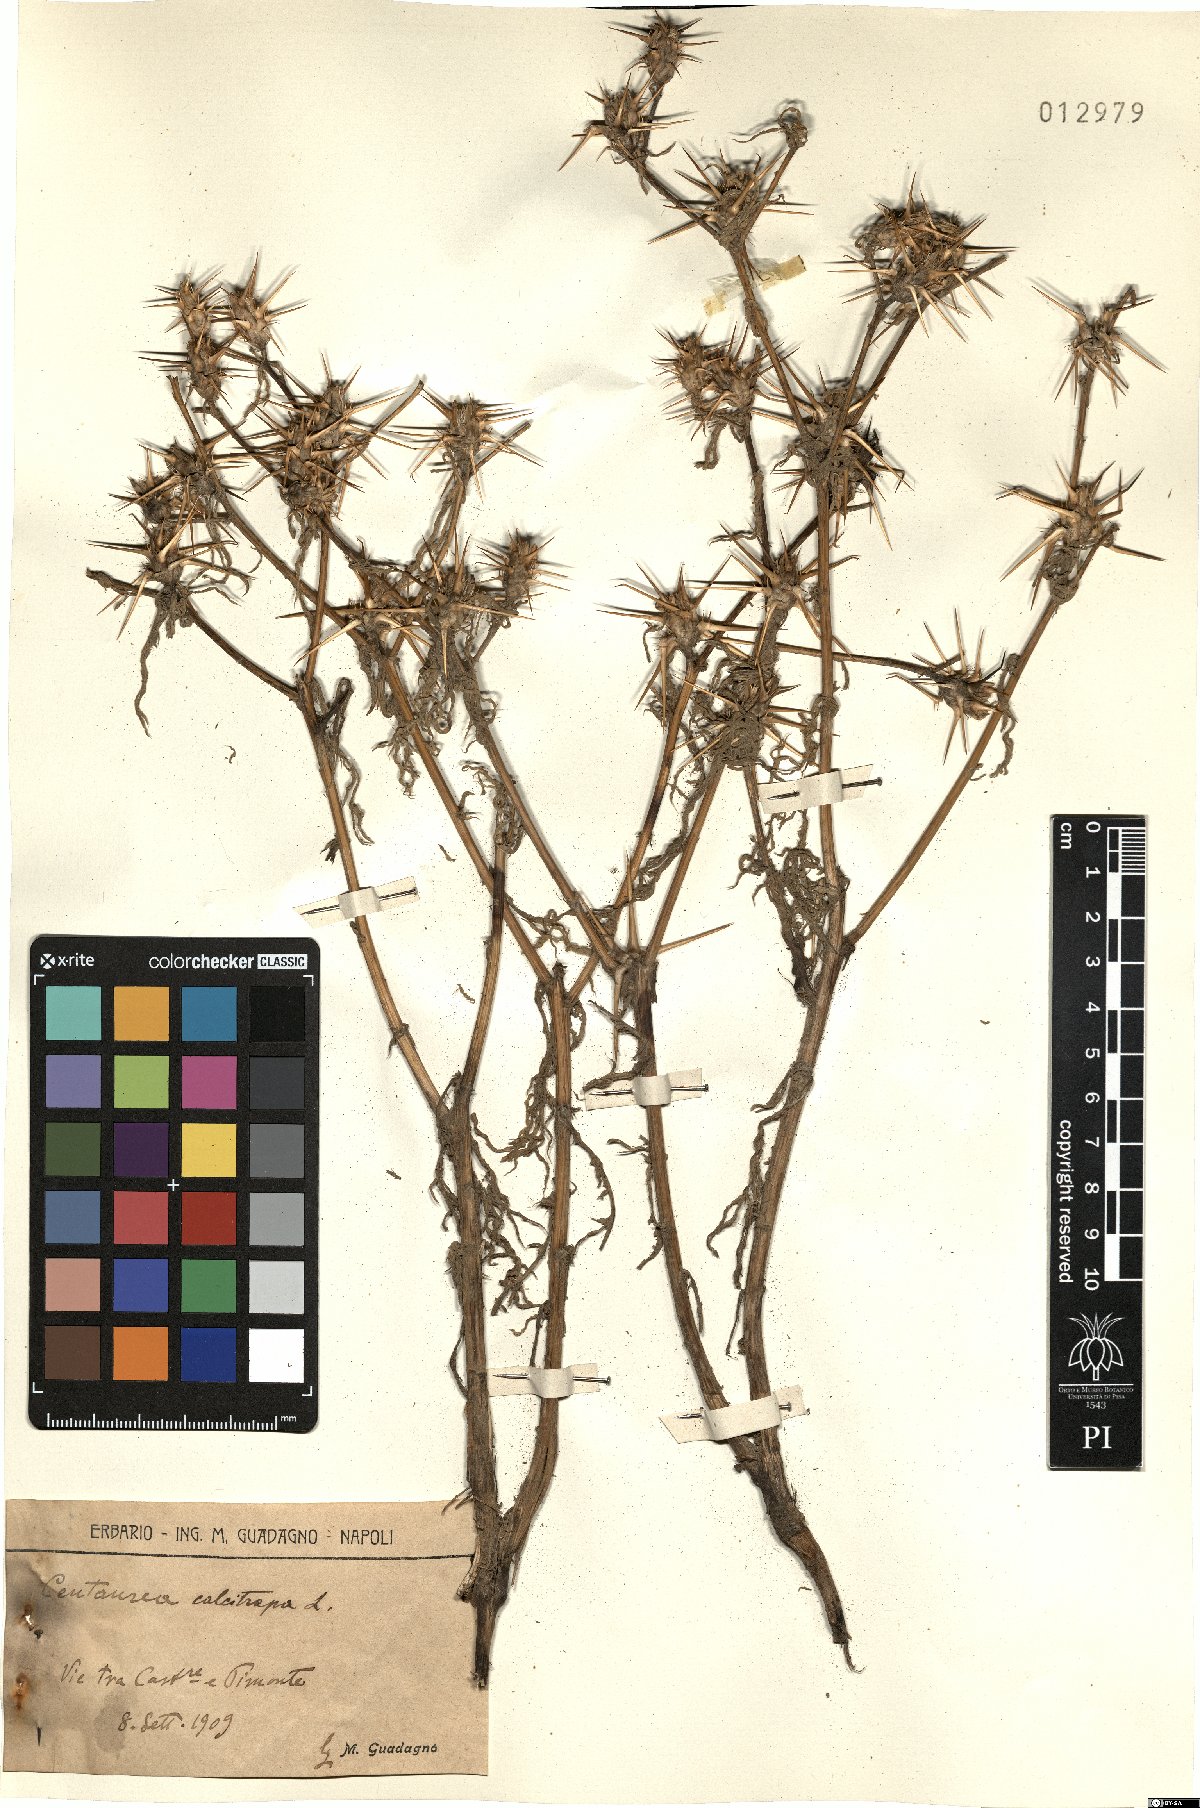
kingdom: Plantae
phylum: Tracheophyta
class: Magnoliopsida
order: Asterales
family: Asteraceae
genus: Centaurea
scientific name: Centaurea calcitrapa
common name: Red star-thistle
